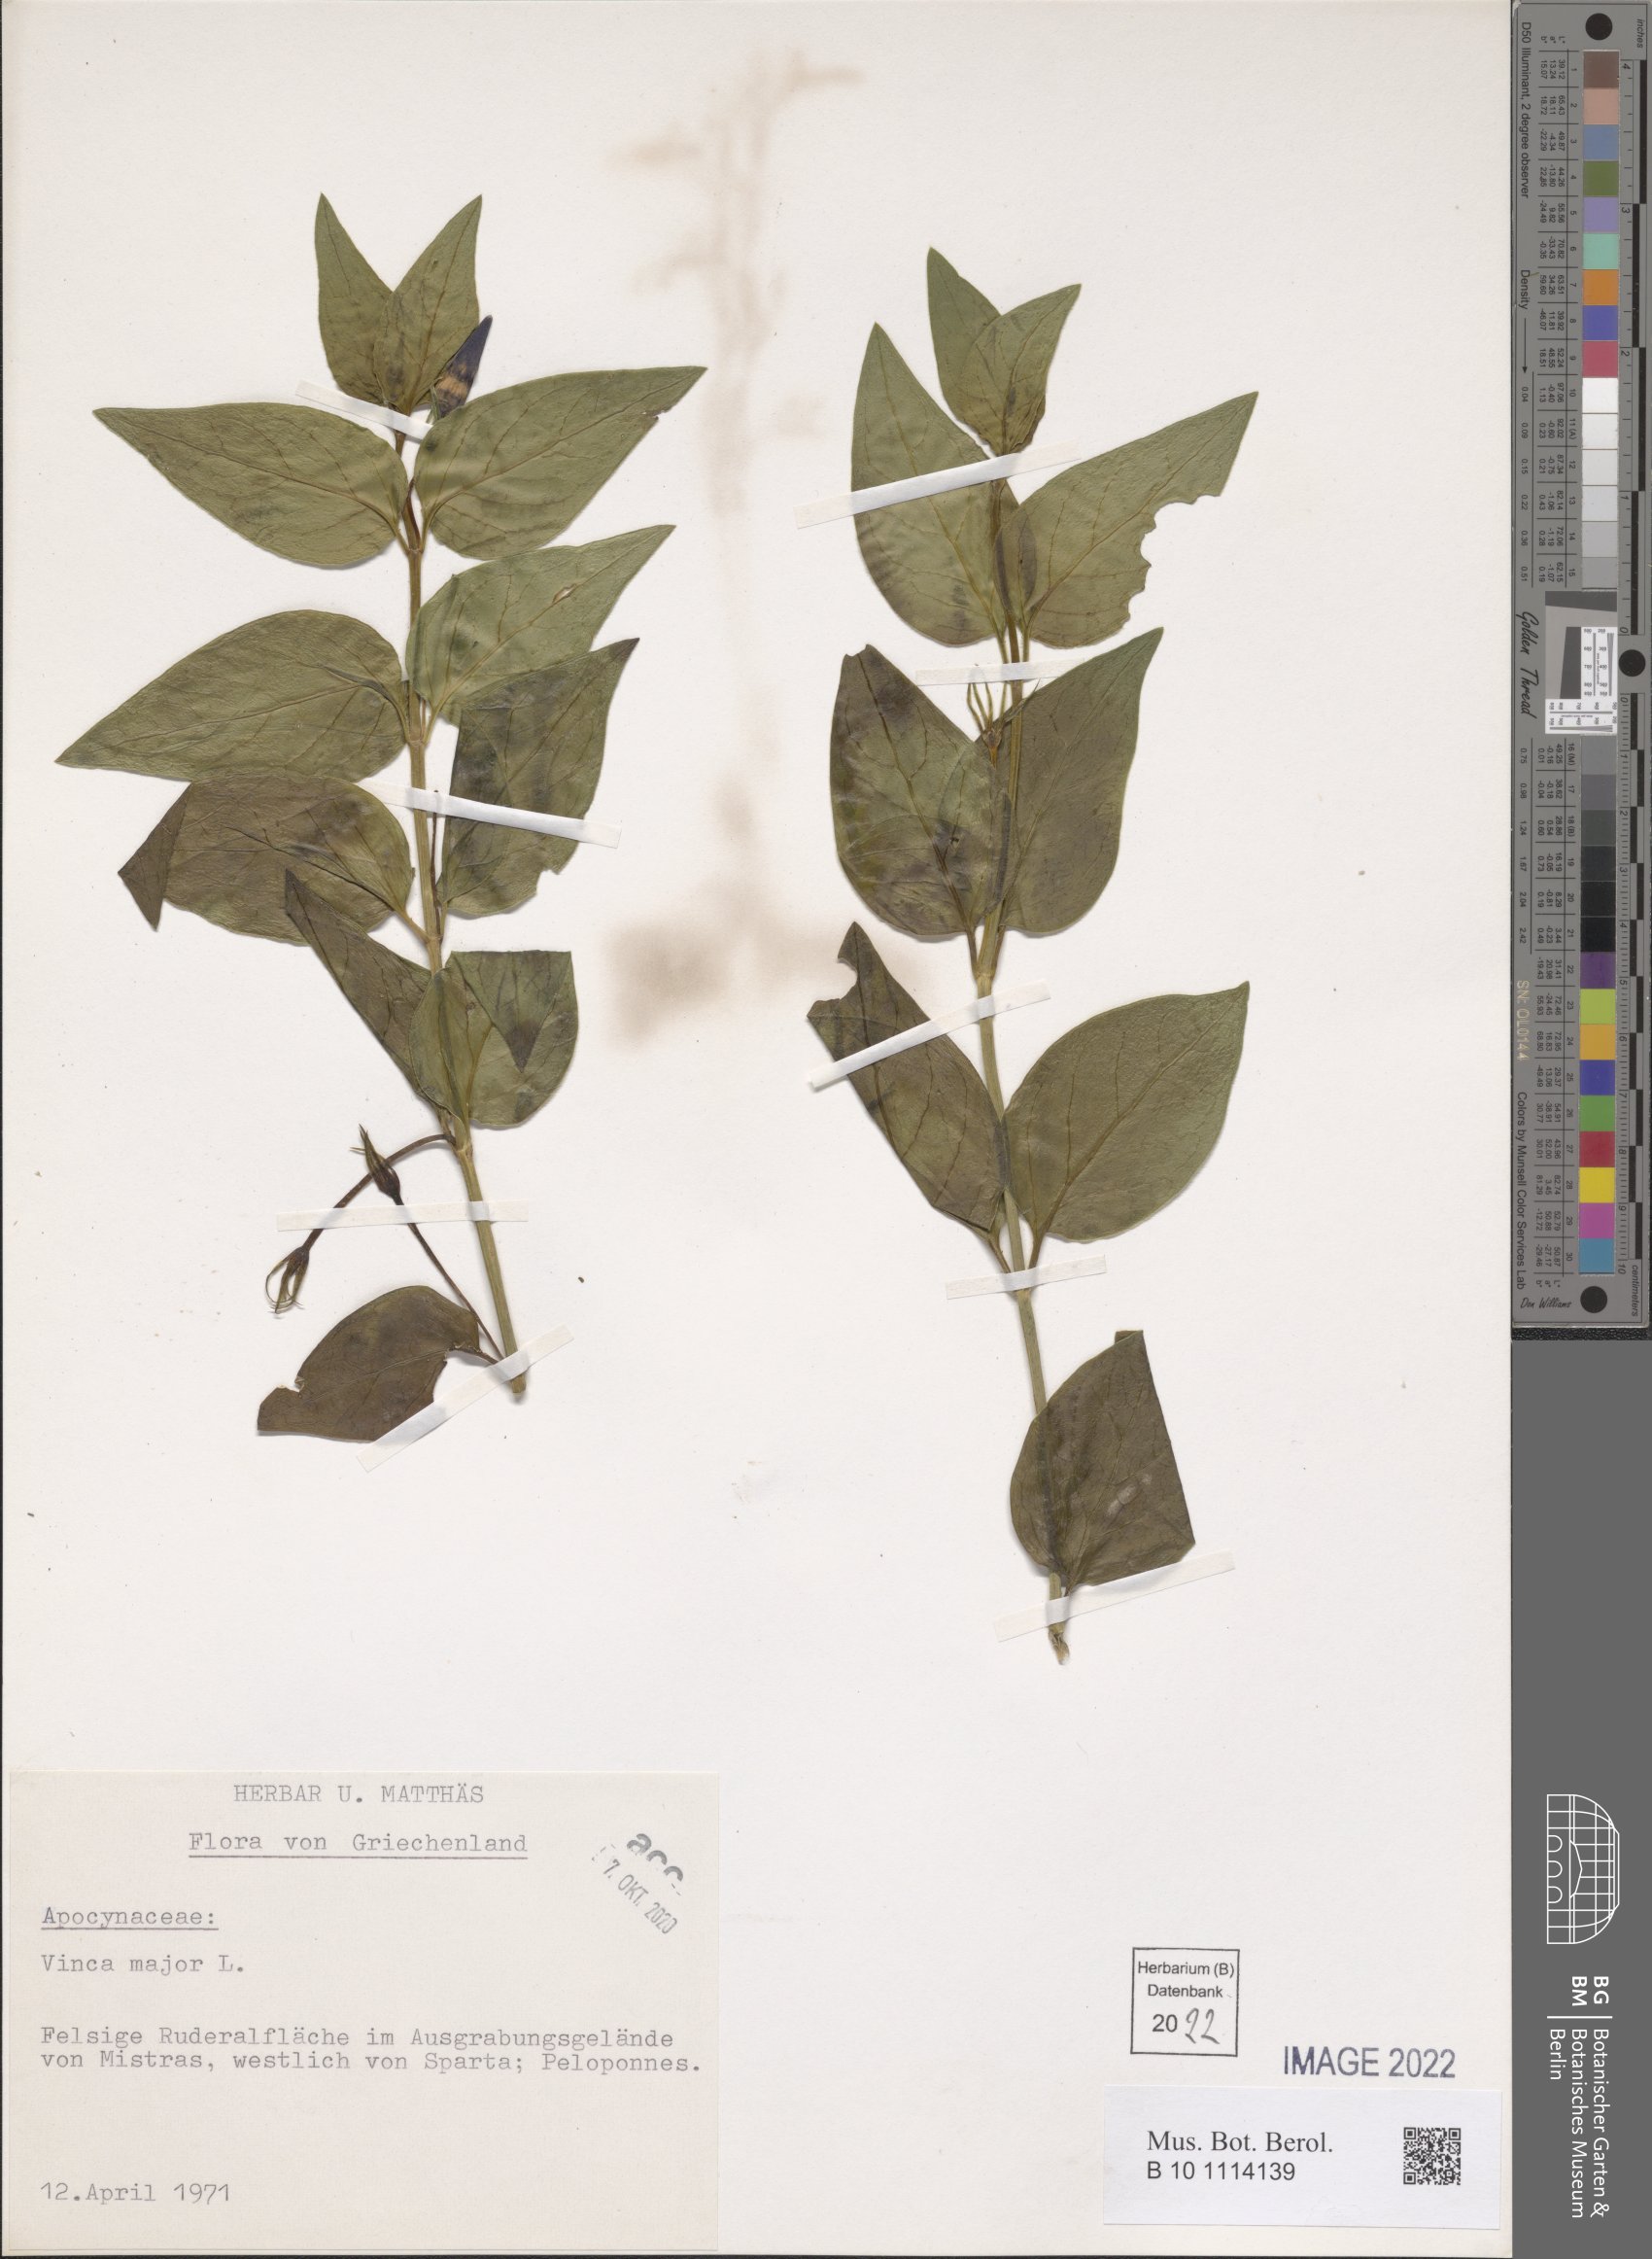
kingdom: Plantae
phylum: Tracheophyta
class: Magnoliopsida
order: Gentianales
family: Apocynaceae
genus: Vinca
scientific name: Vinca major
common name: Greater periwinkle
